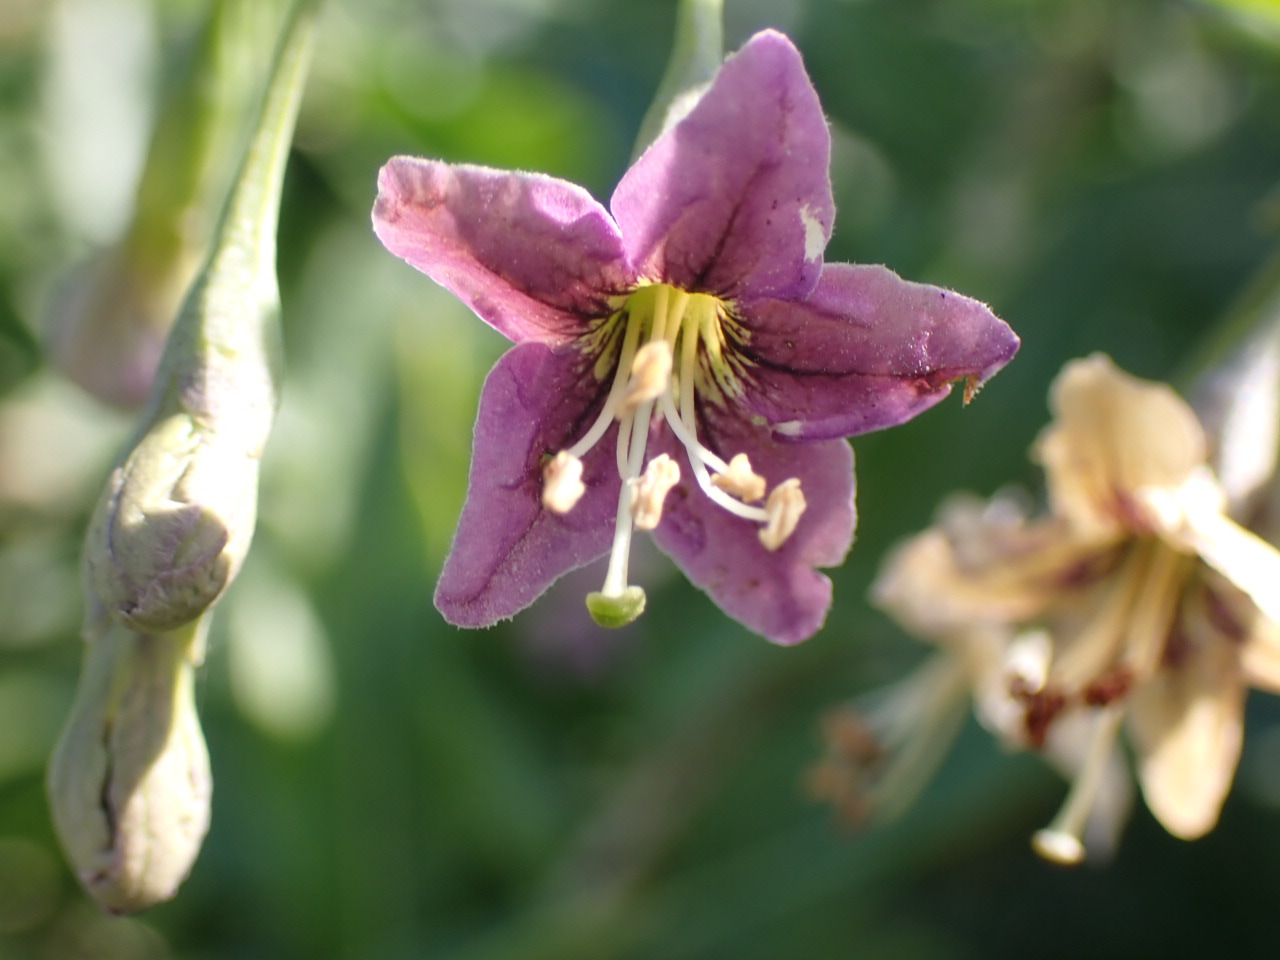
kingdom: Plantae
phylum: Tracheophyta
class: Magnoliopsida
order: Solanales
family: Solanaceae
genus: Lycium
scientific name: Lycium barbarum
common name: Bukketorn
